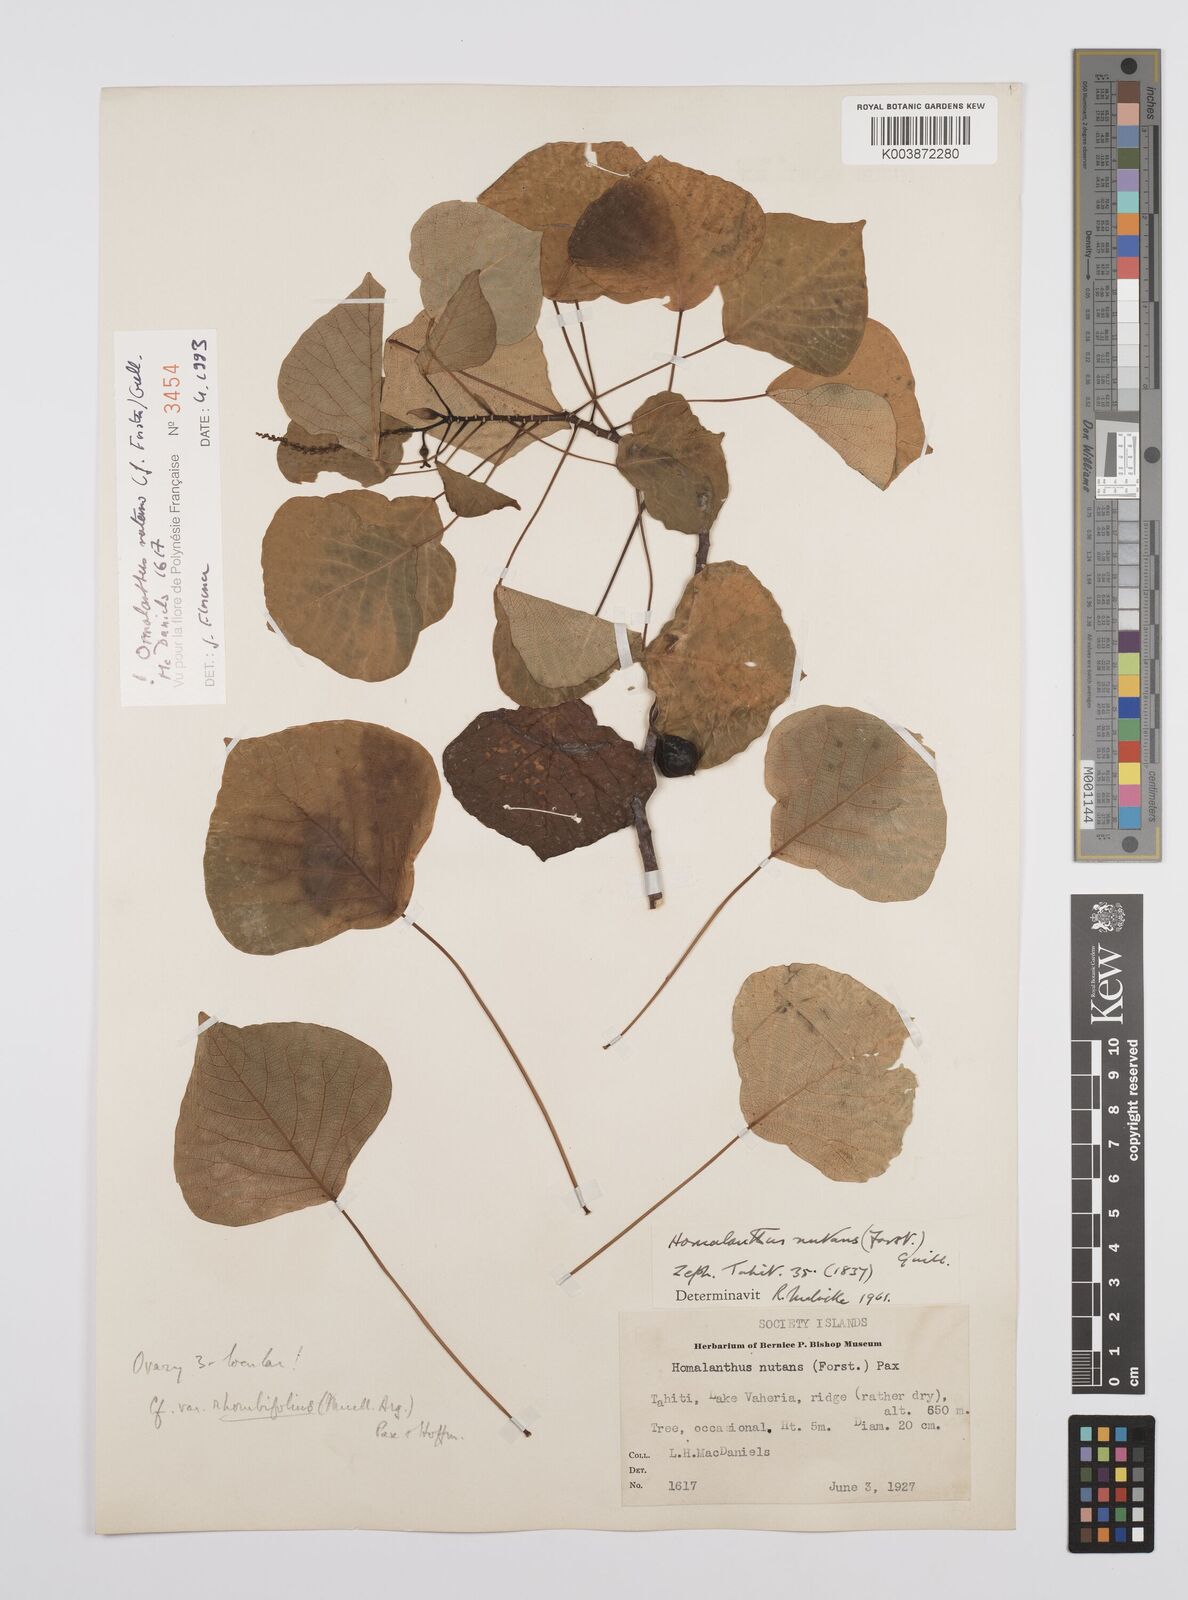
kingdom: Plantae
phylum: Tracheophyta
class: Magnoliopsida
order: Malpighiales
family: Euphorbiaceae
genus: Homalanthus
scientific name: Homalanthus nutans
